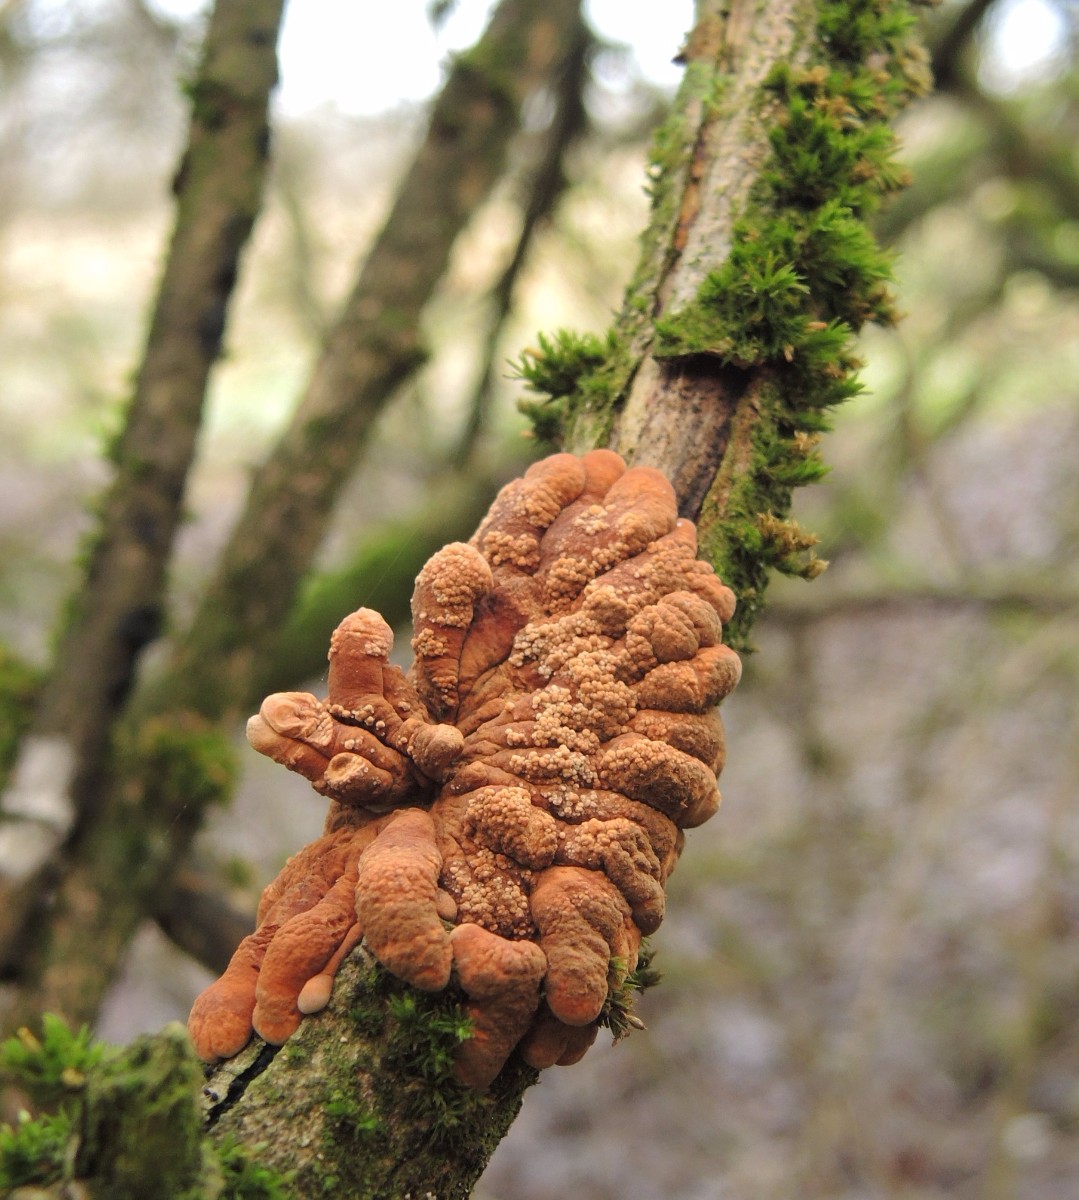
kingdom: Fungi
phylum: Ascomycota
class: Sordariomycetes
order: Hypocreales
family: Hypocreaceae
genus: Hypocreopsis
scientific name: Hypocreopsis lichenoides
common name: pilfinger
